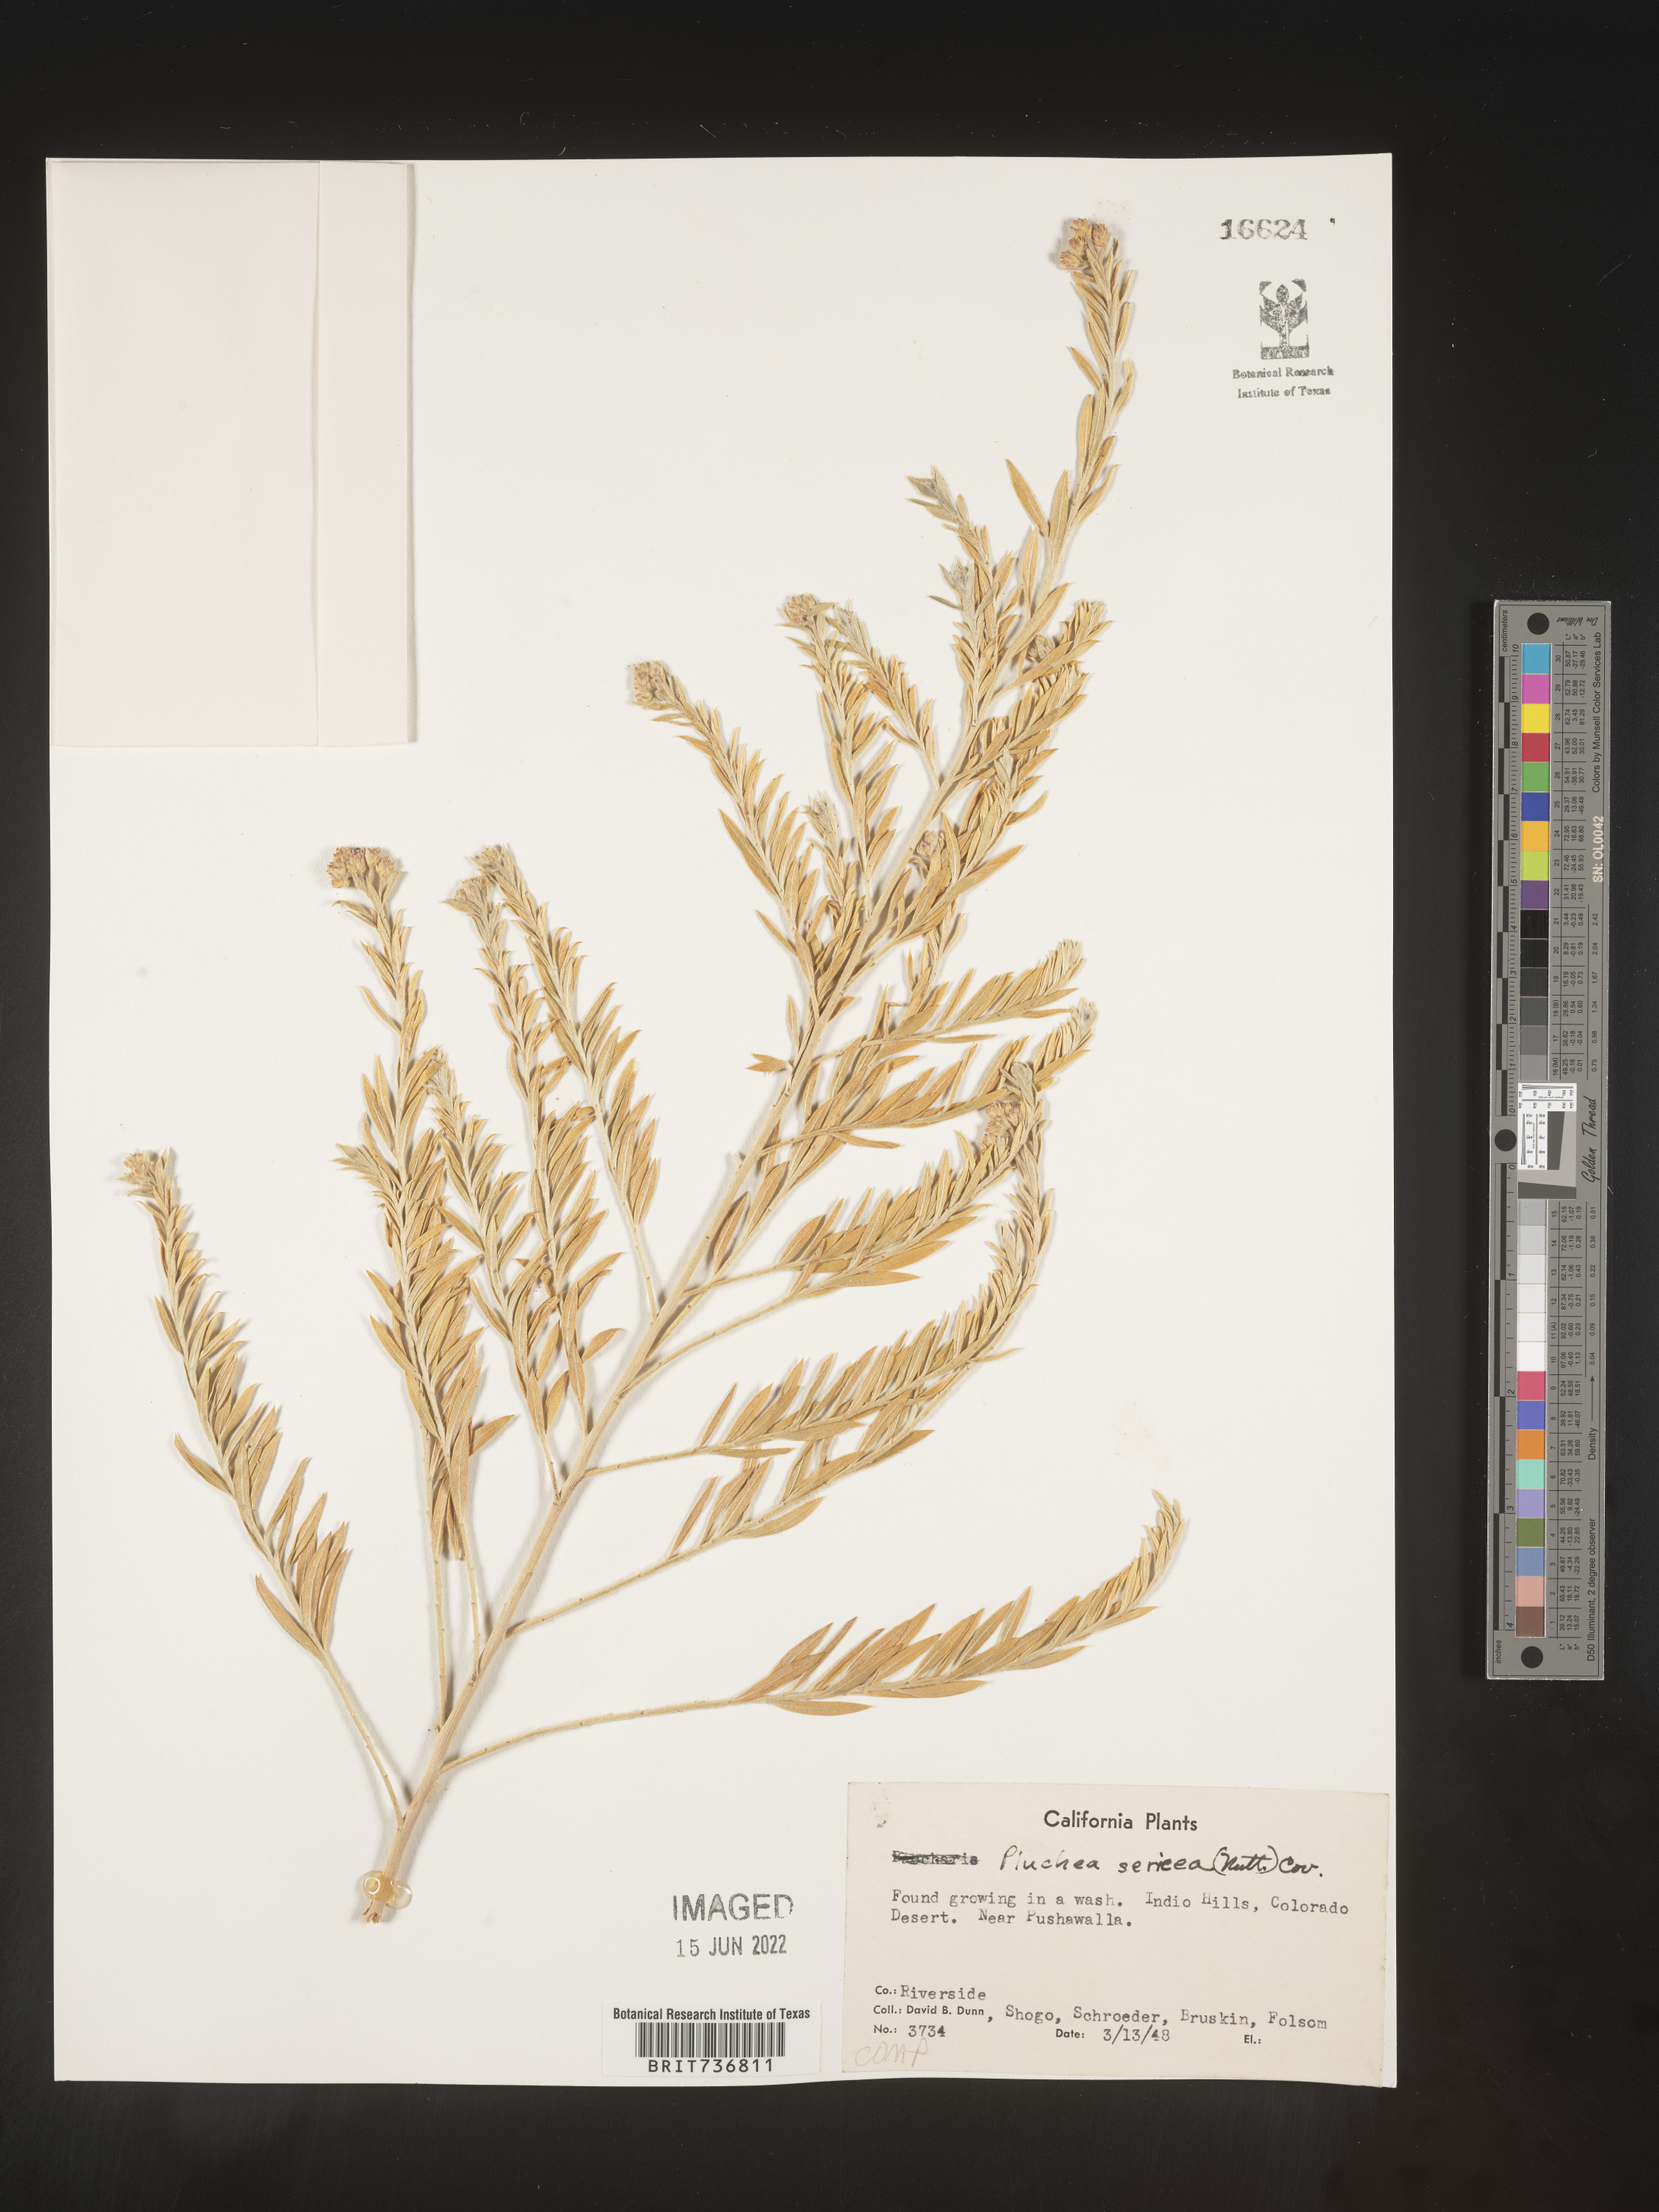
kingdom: Plantae
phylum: Tracheophyta
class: Magnoliopsida
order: Asterales
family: Asteraceae
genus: Pluchea
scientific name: Pluchea sericea
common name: Arrow-weed
